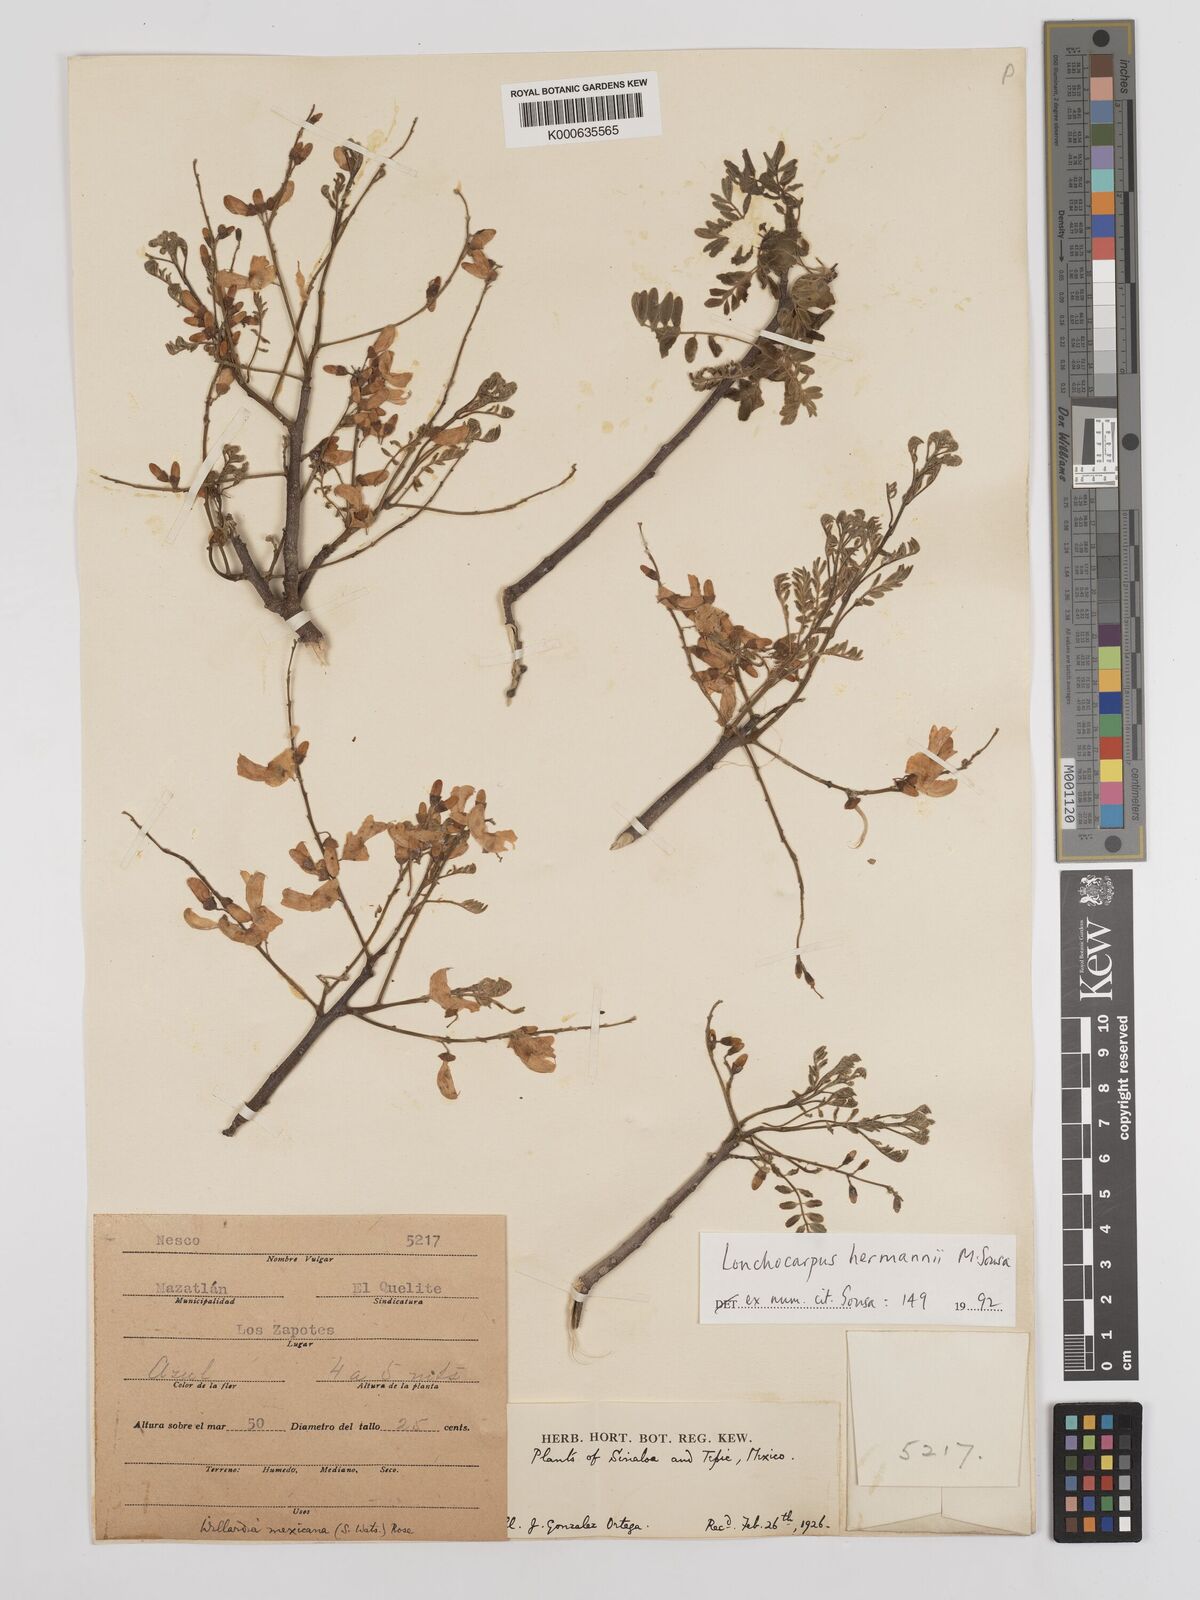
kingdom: Plantae
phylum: Tracheophyta
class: Magnoliopsida
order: Fabales
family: Fabaceae
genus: Lonchocarpus
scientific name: Lonchocarpus hermannii
